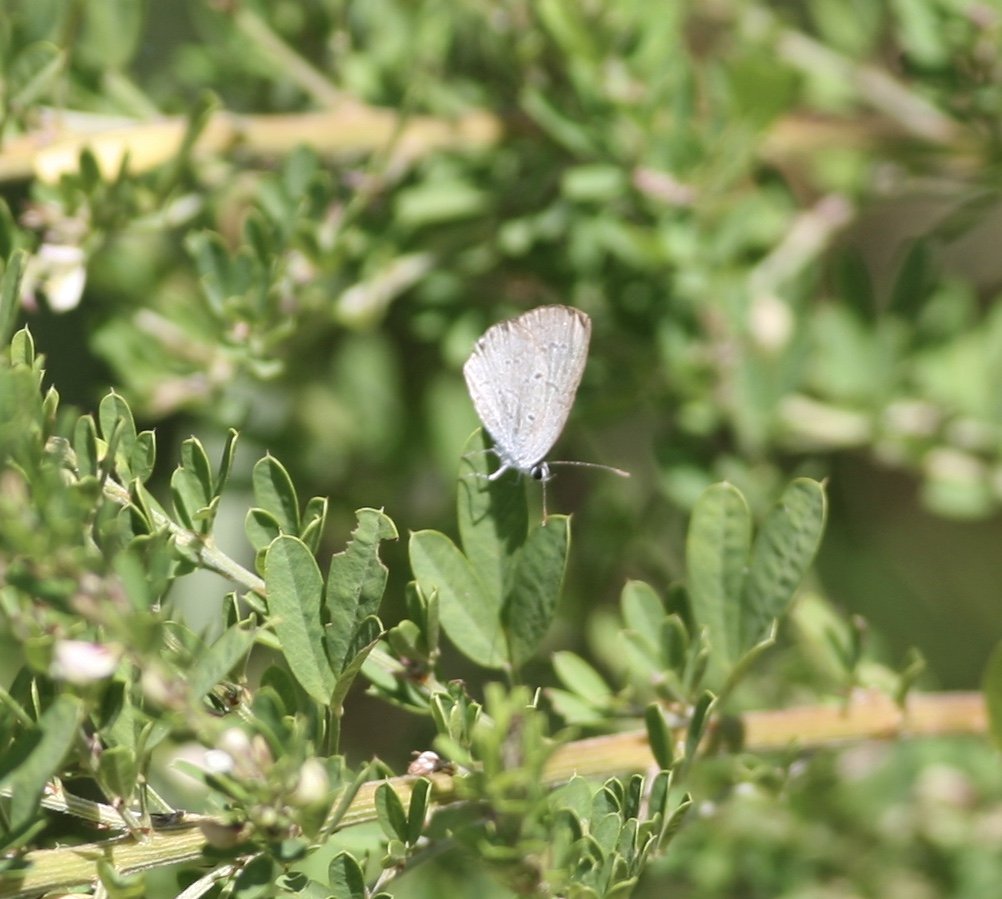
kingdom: Animalia
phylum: Arthropoda
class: Insecta
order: Lepidoptera
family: Lycaenidae
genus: Cyaniris
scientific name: Cyaniris neglecta
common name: Summer Azure
